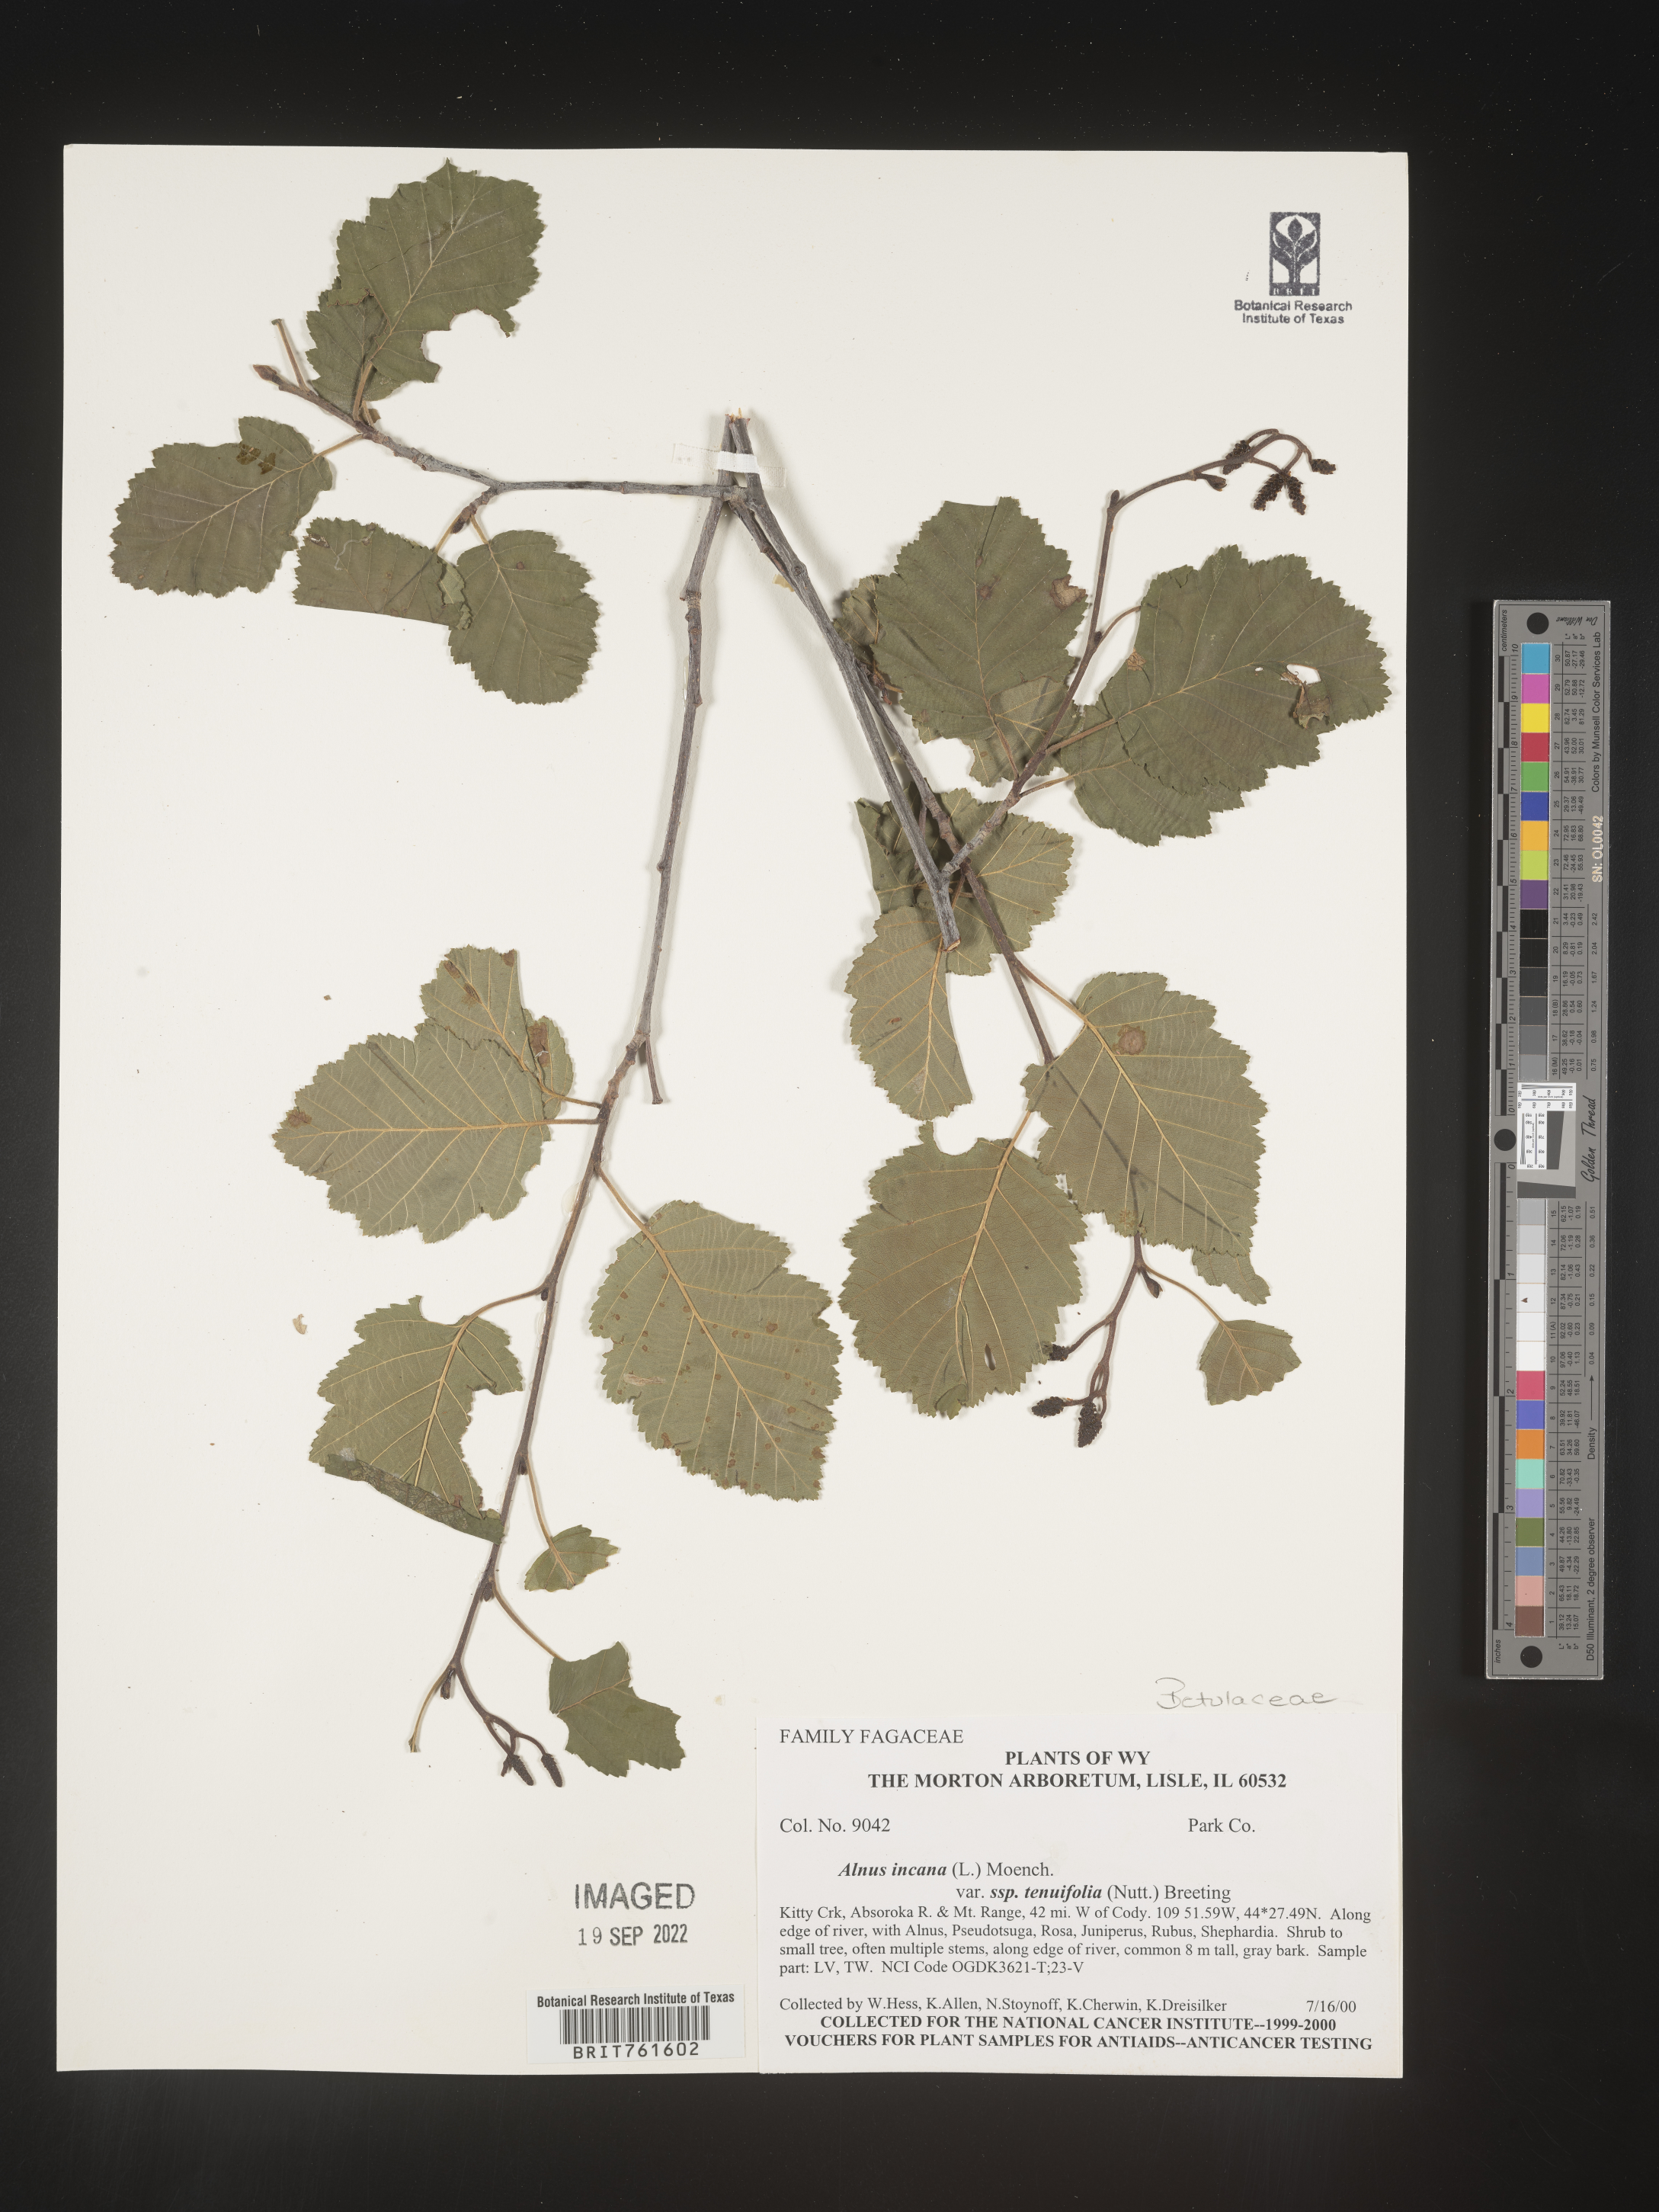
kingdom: Plantae
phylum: Tracheophyta
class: Magnoliopsida
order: Fagales
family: Betulaceae
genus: Alnus
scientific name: Alnus incana
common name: Grey alder
